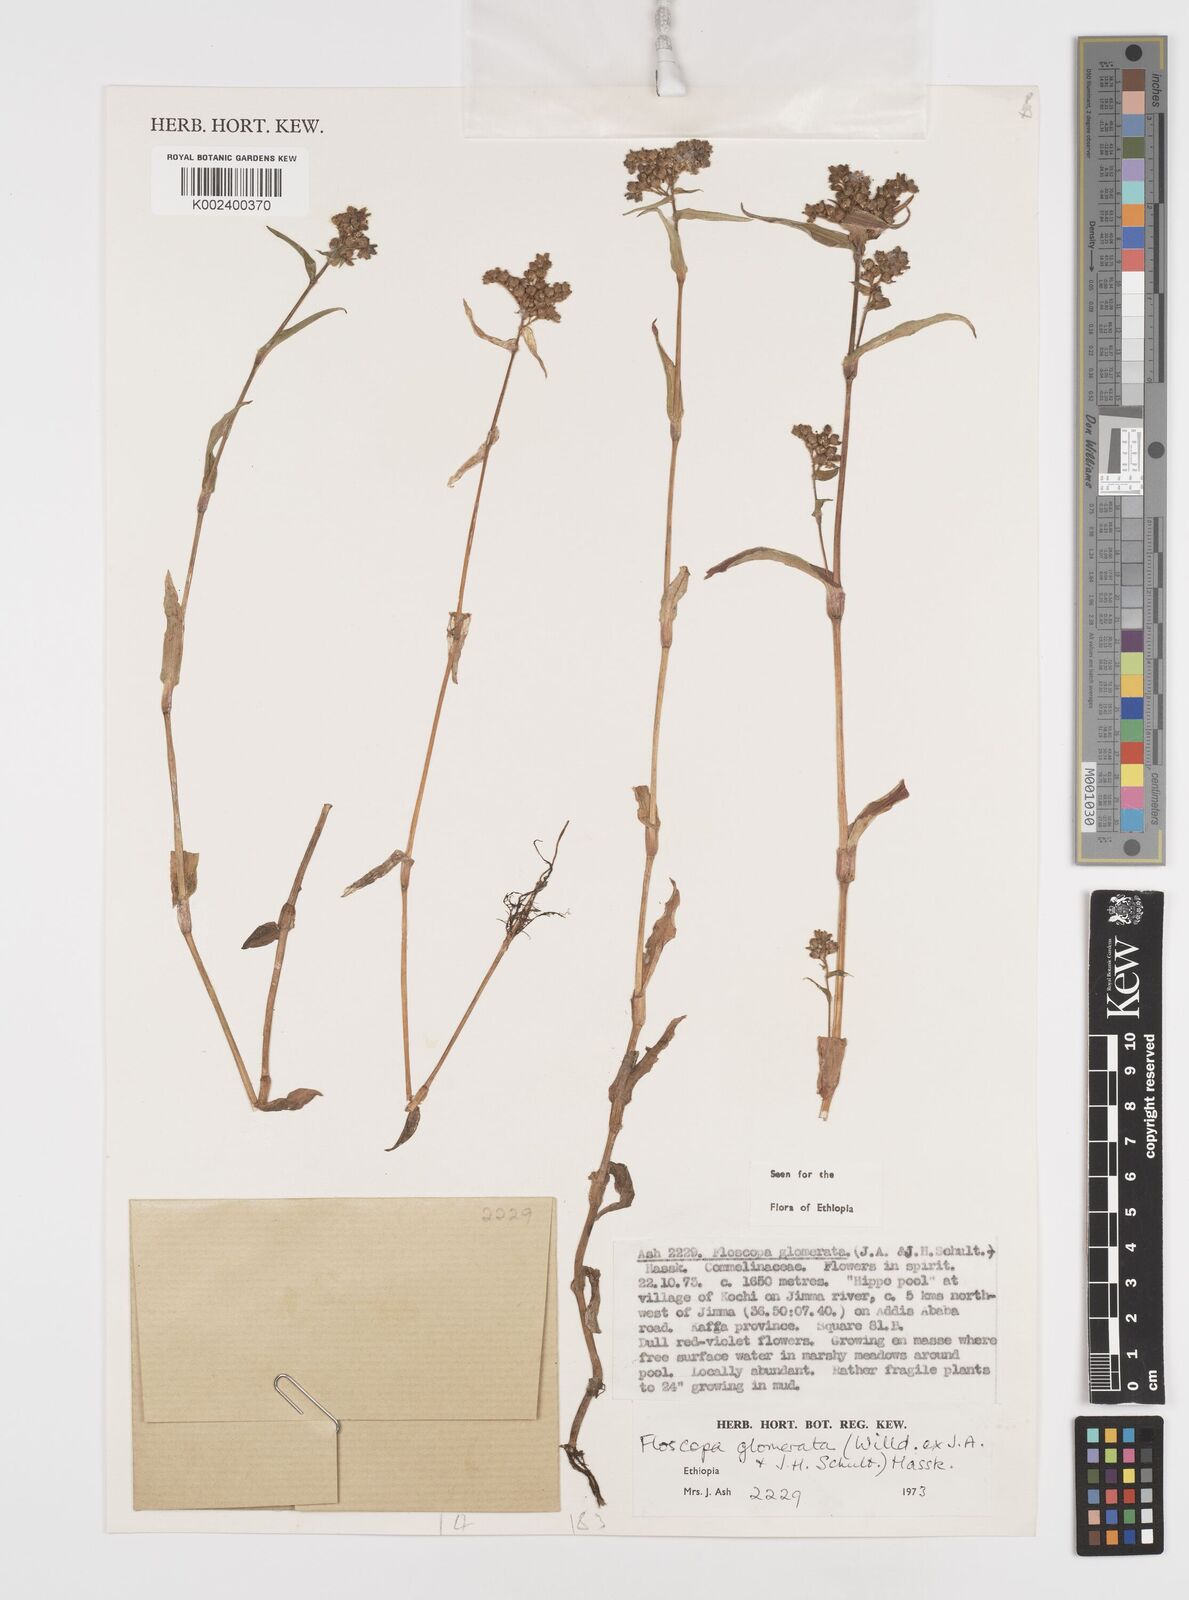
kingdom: Plantae
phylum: Tracheophyta
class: Liliopsida
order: Commelinales
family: Commelinaceae
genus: Floscopa
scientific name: Floscopa glomerata
